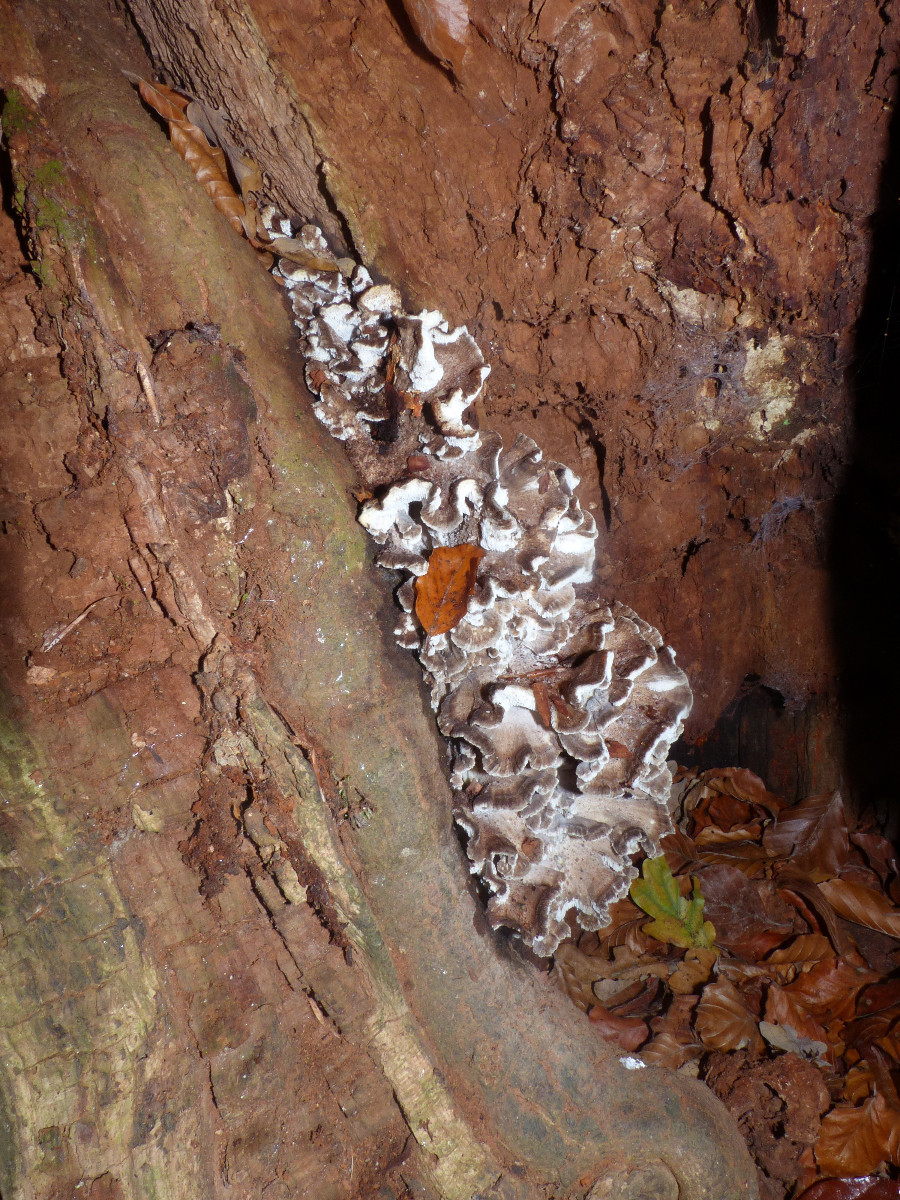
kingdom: Fungi
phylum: Basidiomycota
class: Agaricomycetes
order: Polyporales
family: Grifolaceae
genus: Grifola
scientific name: Grifola frondosa
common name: tueporesvamp
